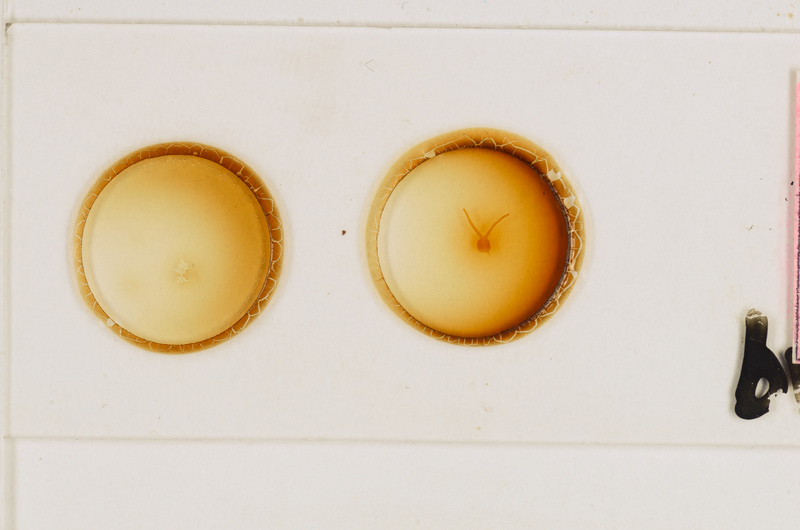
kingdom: Animalia
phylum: Arthropoda
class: Chilopoda
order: Geophilomorpha
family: Aphilodontidae
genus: Aphilodon
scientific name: Aphilodon brevipes
